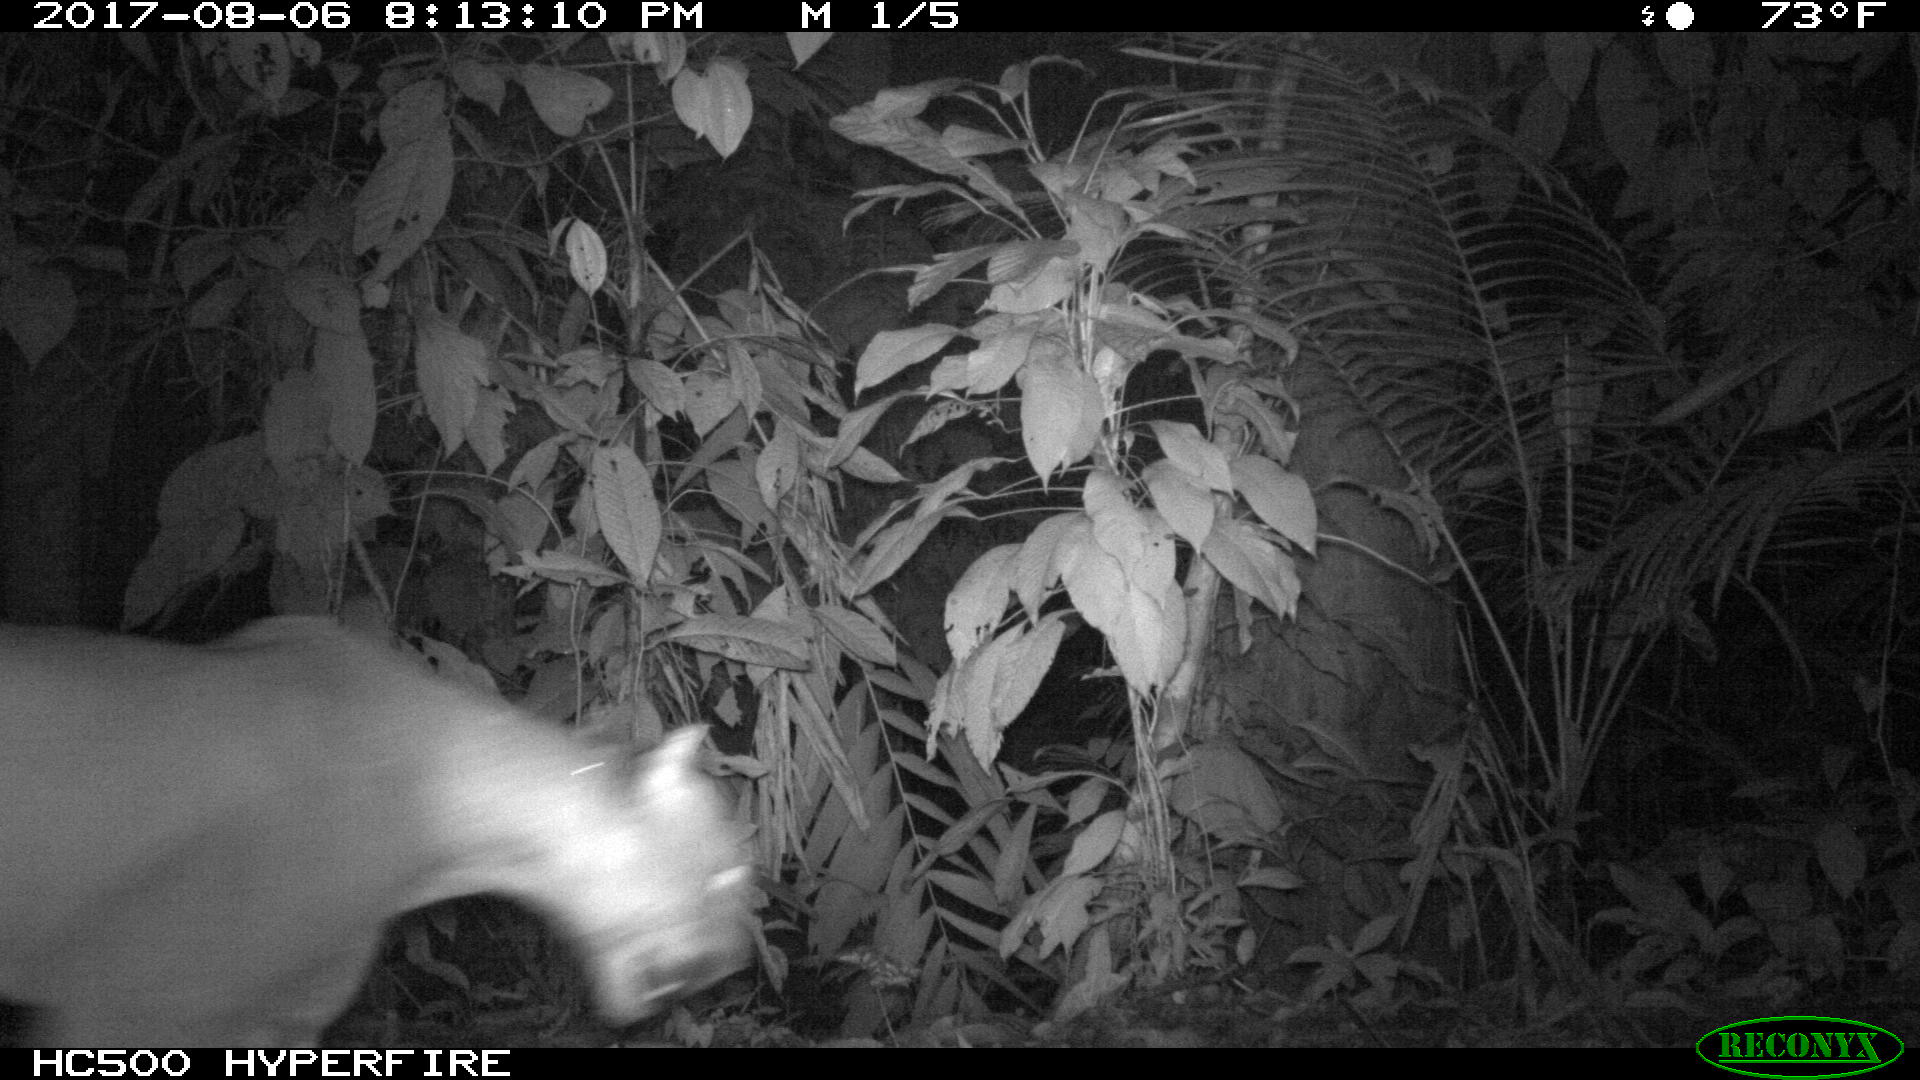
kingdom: Animalia
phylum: Chordata
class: Mammalia
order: Carnivora
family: Felidae
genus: Puma
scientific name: Puma concolor
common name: Puma
